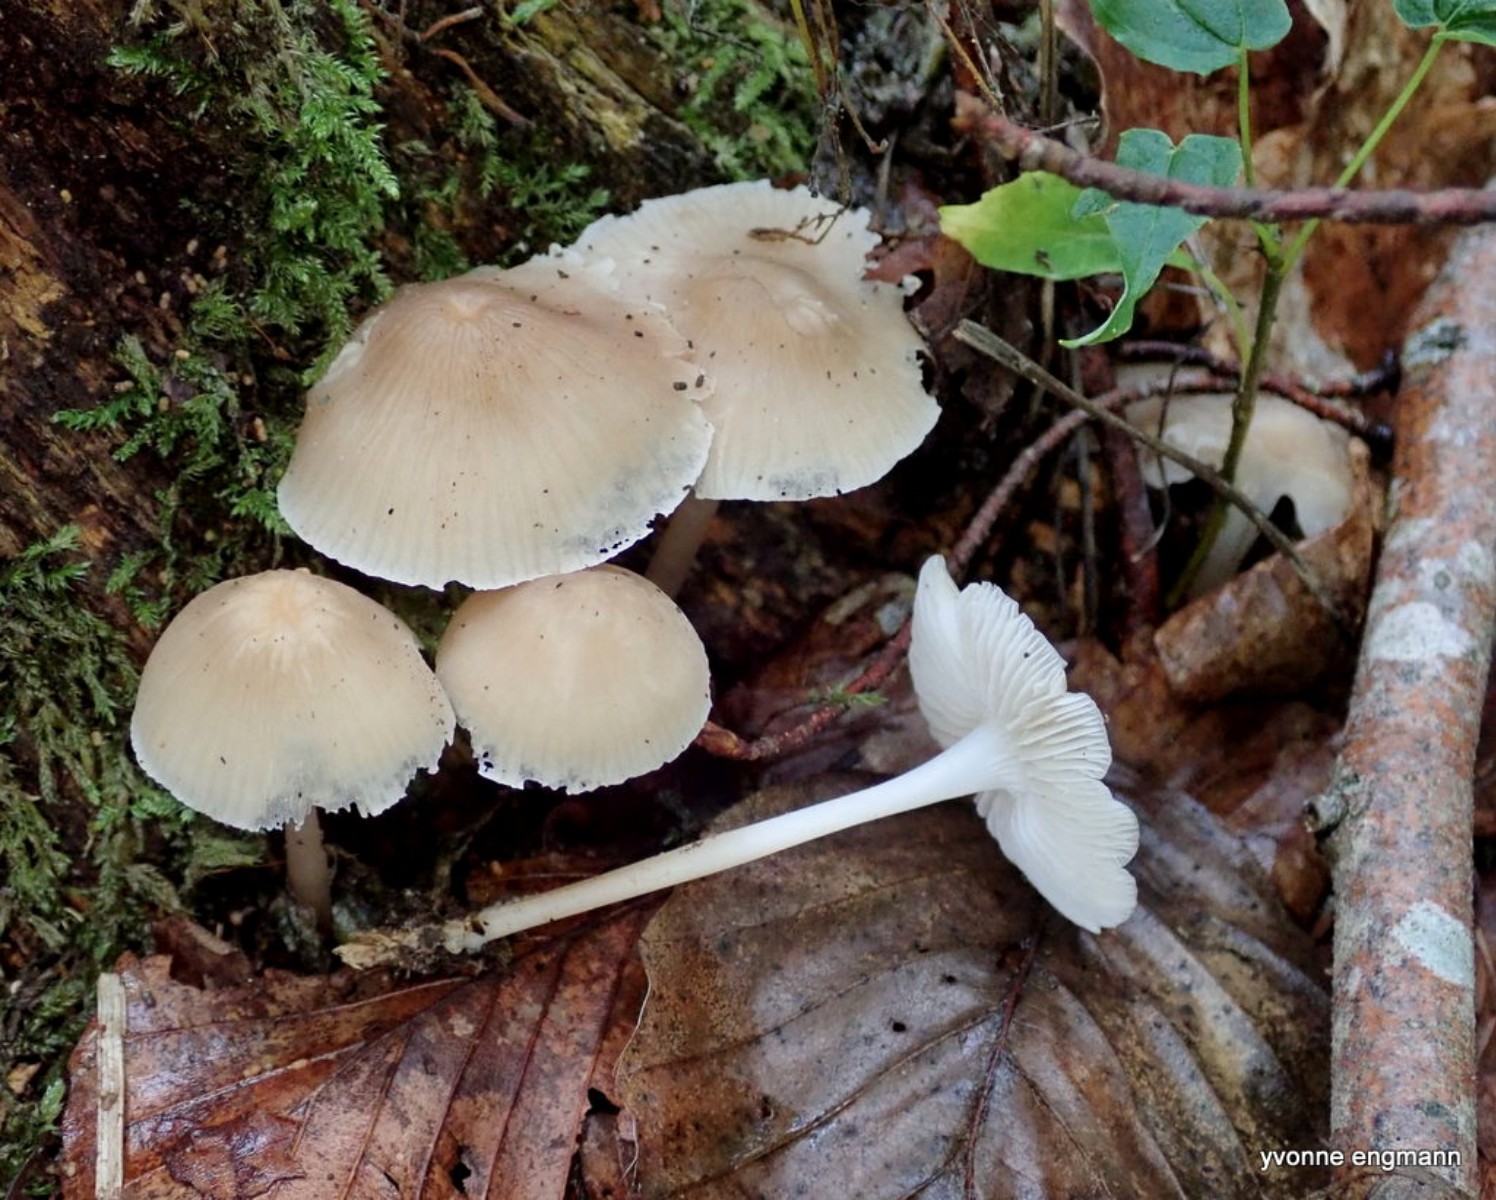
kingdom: Fungi
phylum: Basidiomycota
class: Agaricomycetes
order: Agaricales
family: Psathyrellaceae
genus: Candolleomyces
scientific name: Candolleomyces candolleanus
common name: Candolles mørkhat
